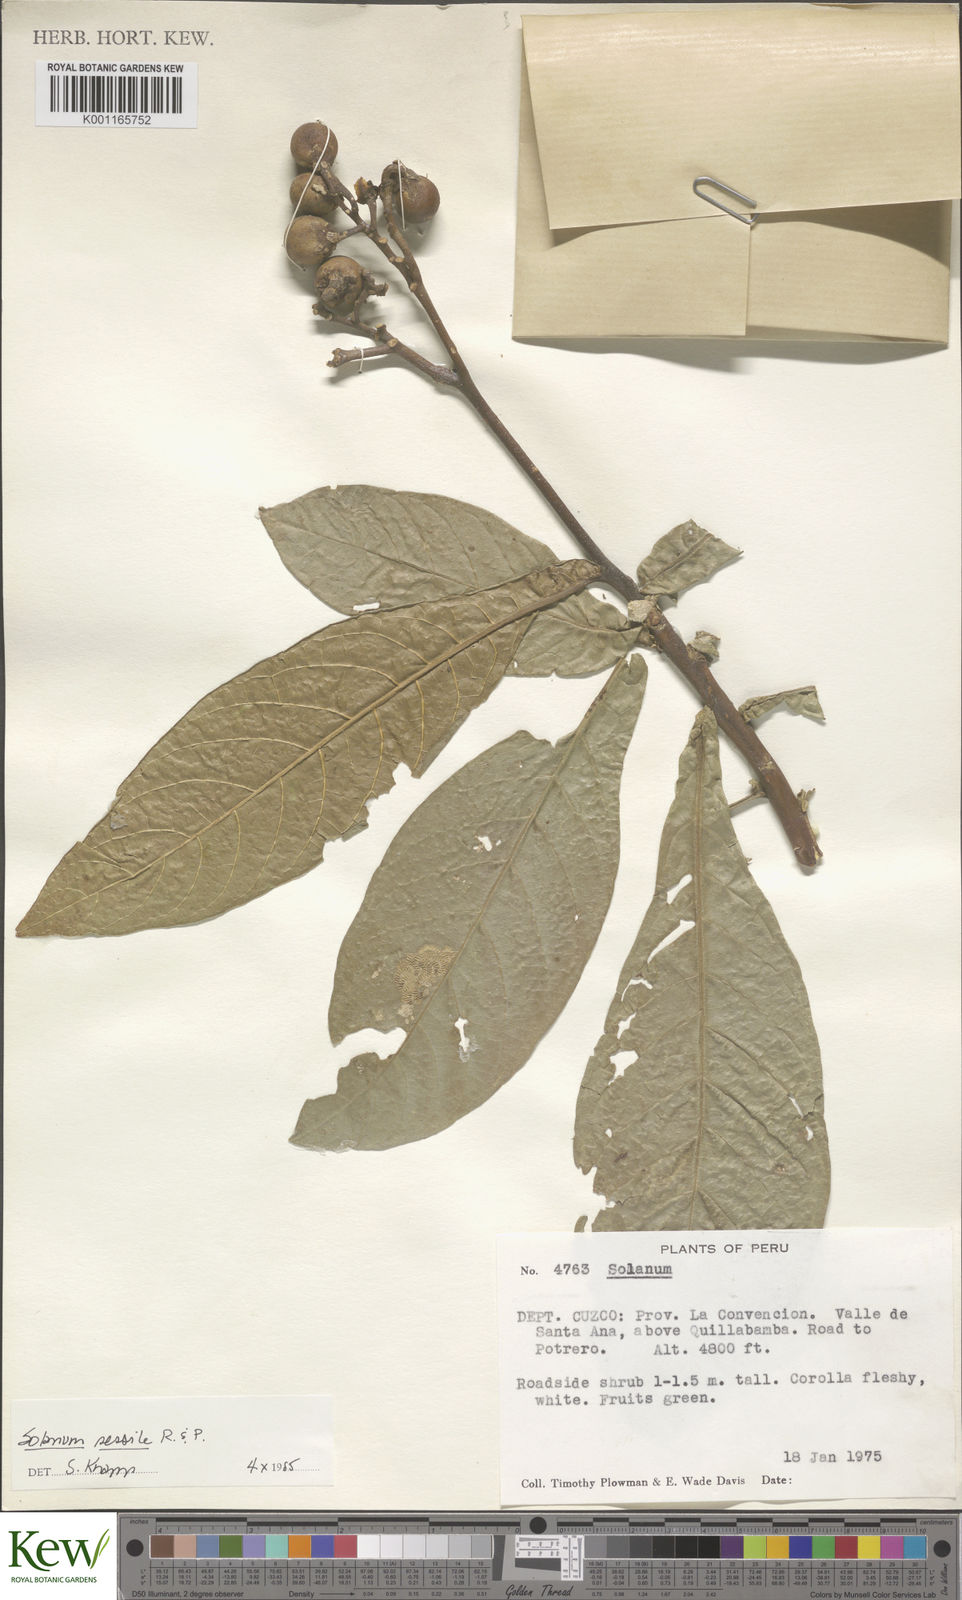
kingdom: Plantae
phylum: Tracheophyta
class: Magnoliopsida
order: Solanales
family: Solanaceae
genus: Solanum
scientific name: Solanum sessile
